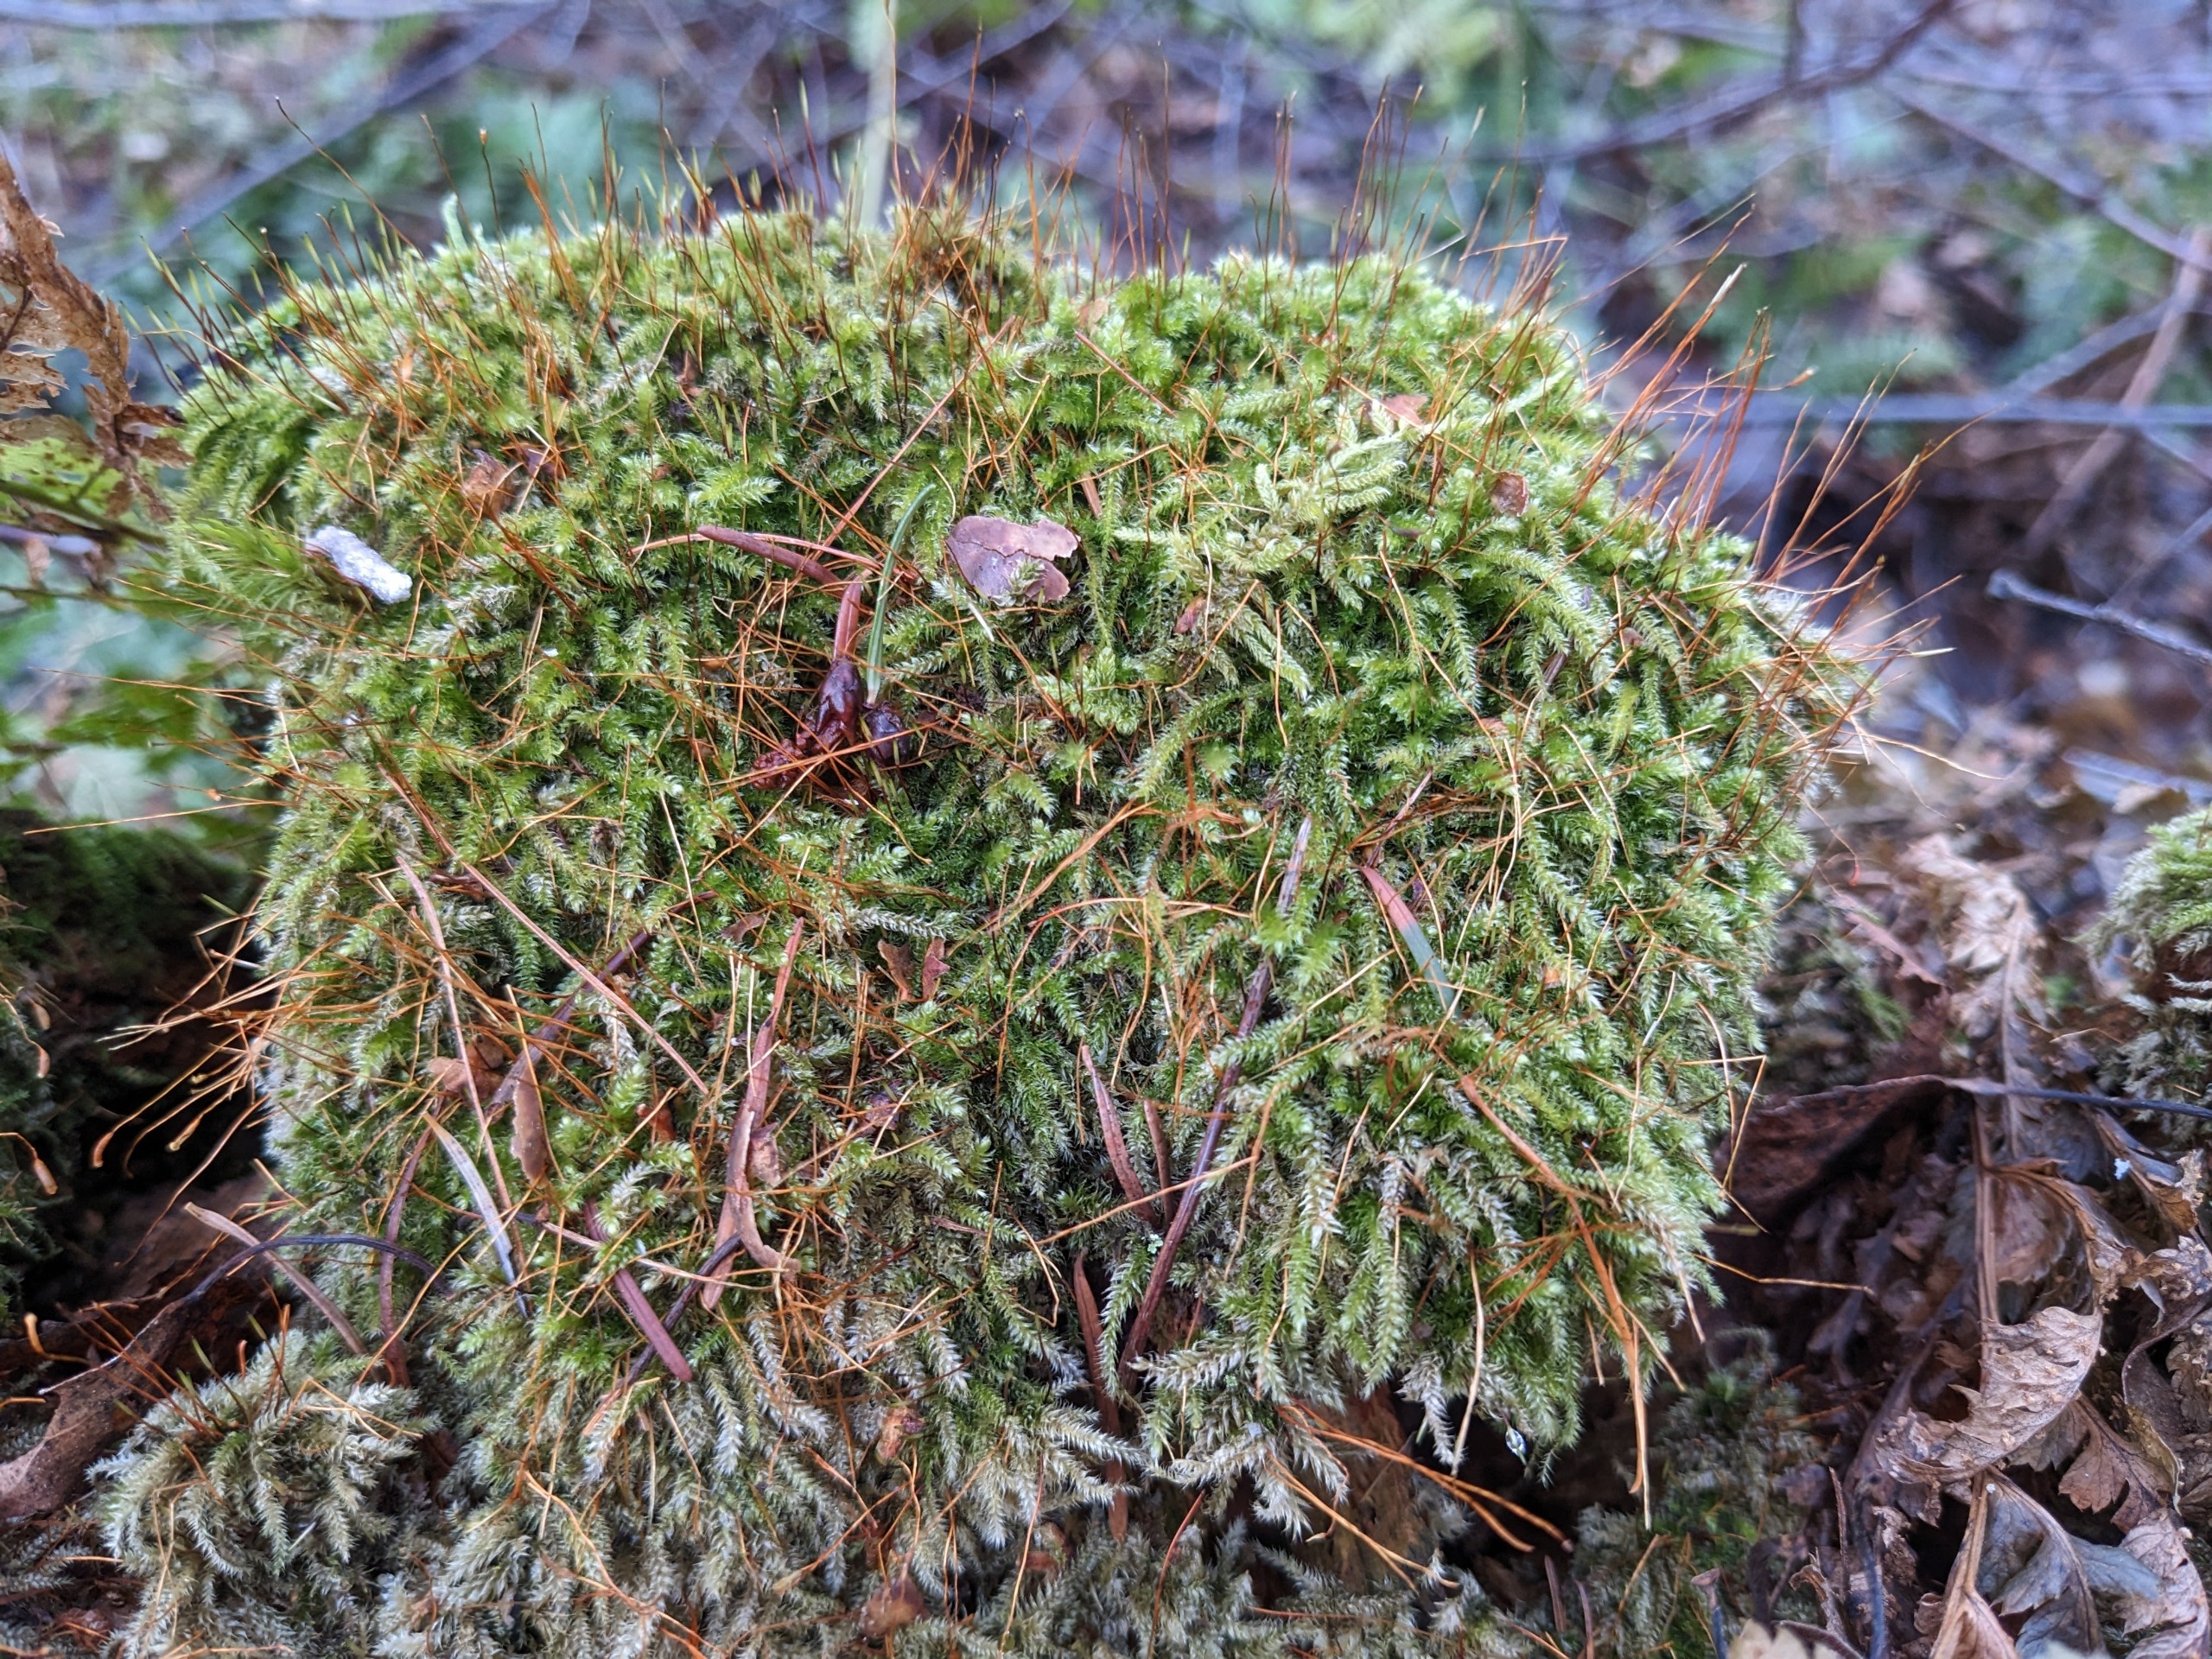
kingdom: Plantae
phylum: Bryophyta
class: Bryopsida
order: Hypnales
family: Plagiotheciaceae
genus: Herzogiella
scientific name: Herzogiella seligeri
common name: Stub-pølsekapsel
